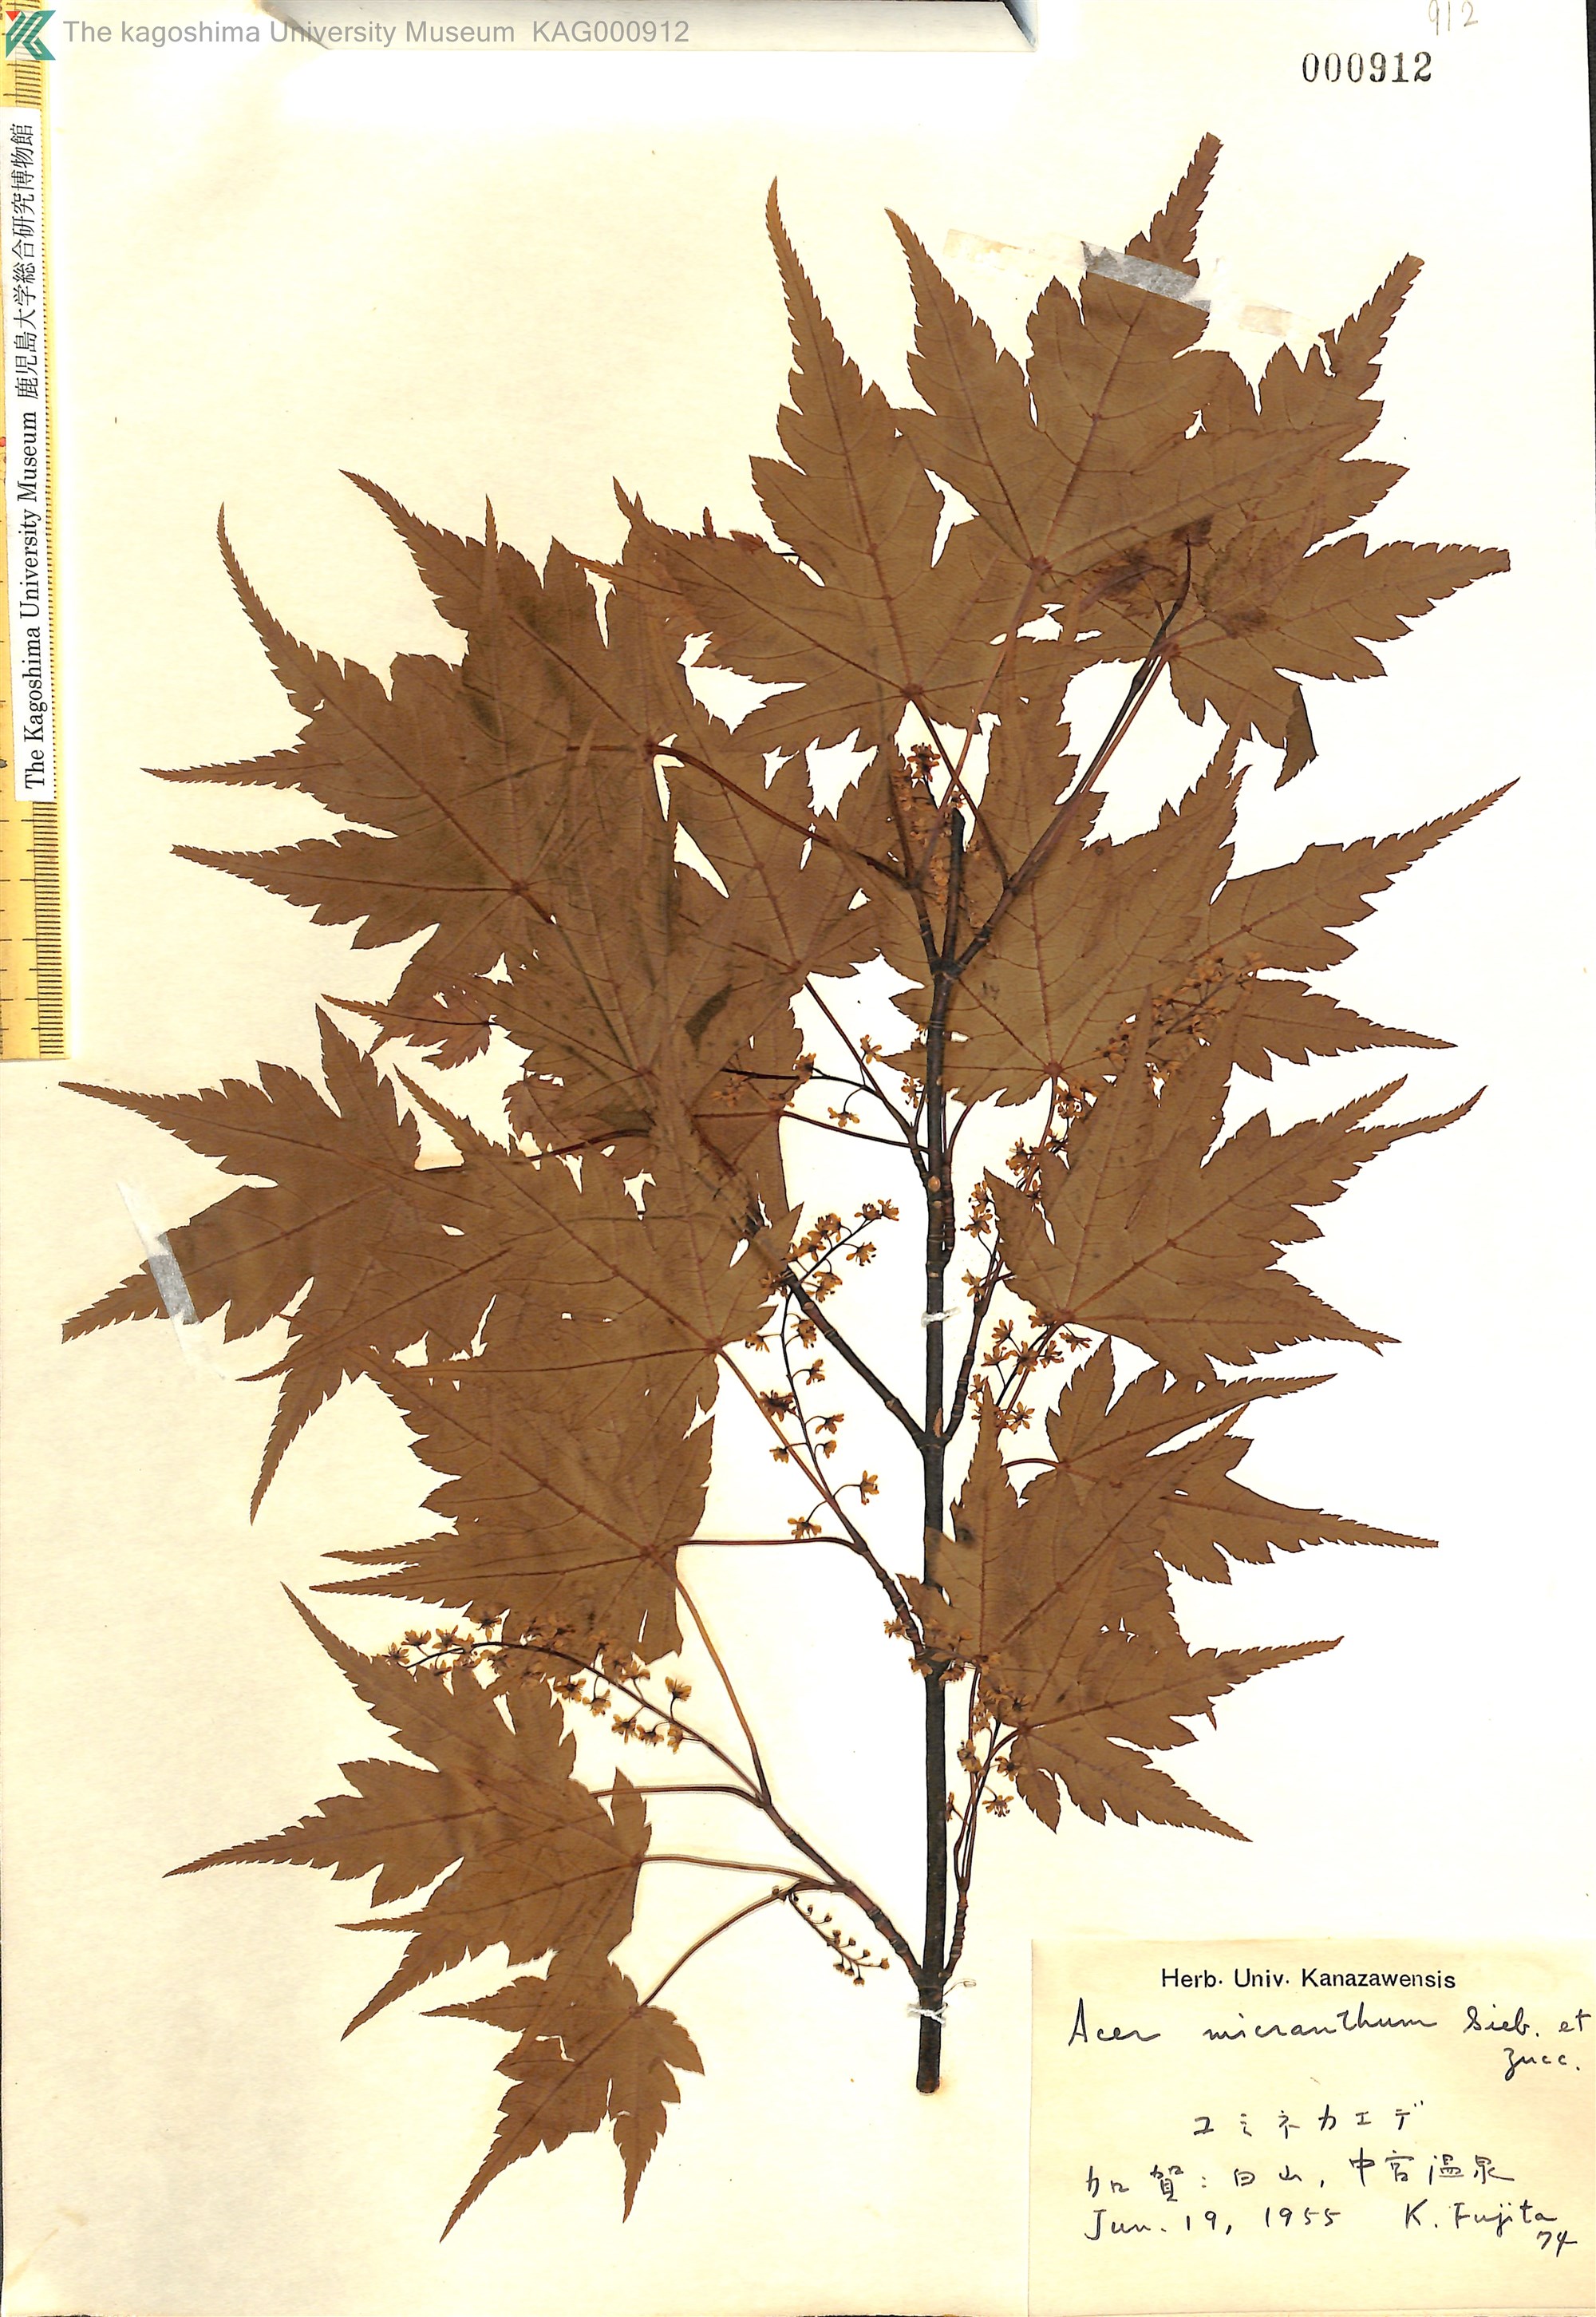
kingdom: Plantae
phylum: Tracheophyta
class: Magnoliopsida
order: Sapindales
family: Sapindaceae
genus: Acer
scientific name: Acer micranthum
